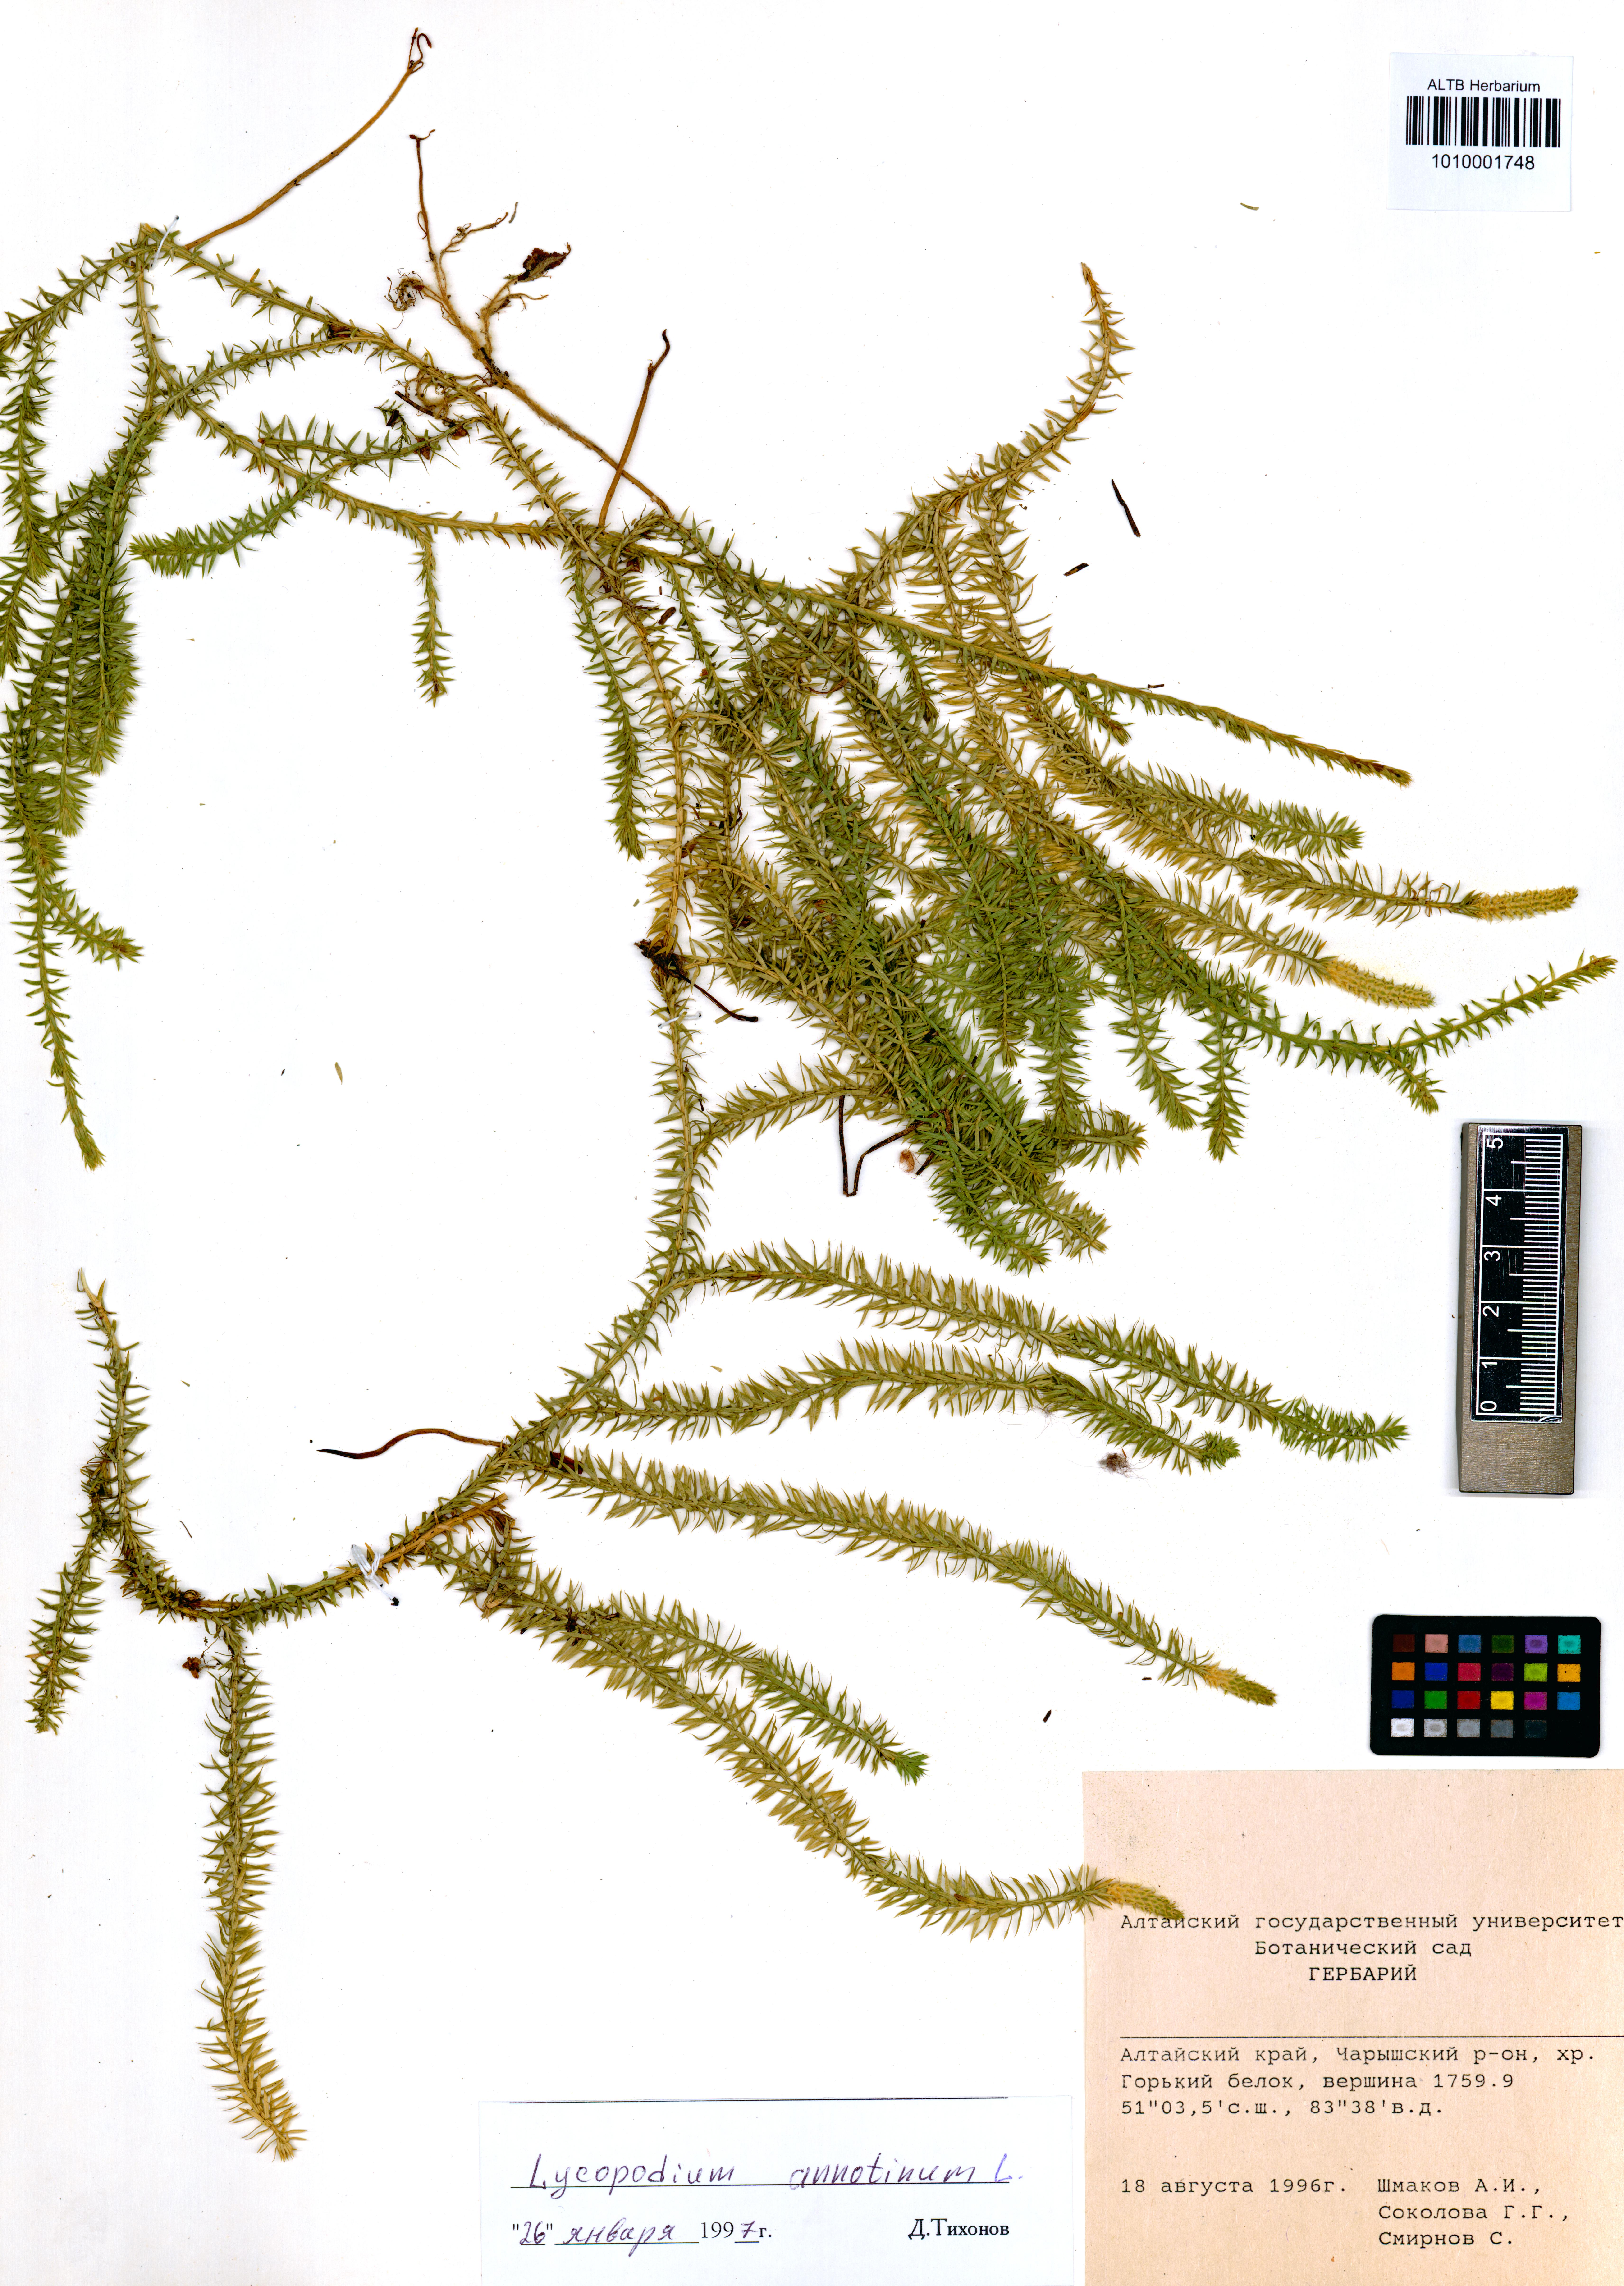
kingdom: Plantae
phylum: Tracheophyta
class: Lycopodiopsida
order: Lycopodiales
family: Lycopodiaceae
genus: Spinulum
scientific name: Spinulum annotinum
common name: Interrupted club-moss
